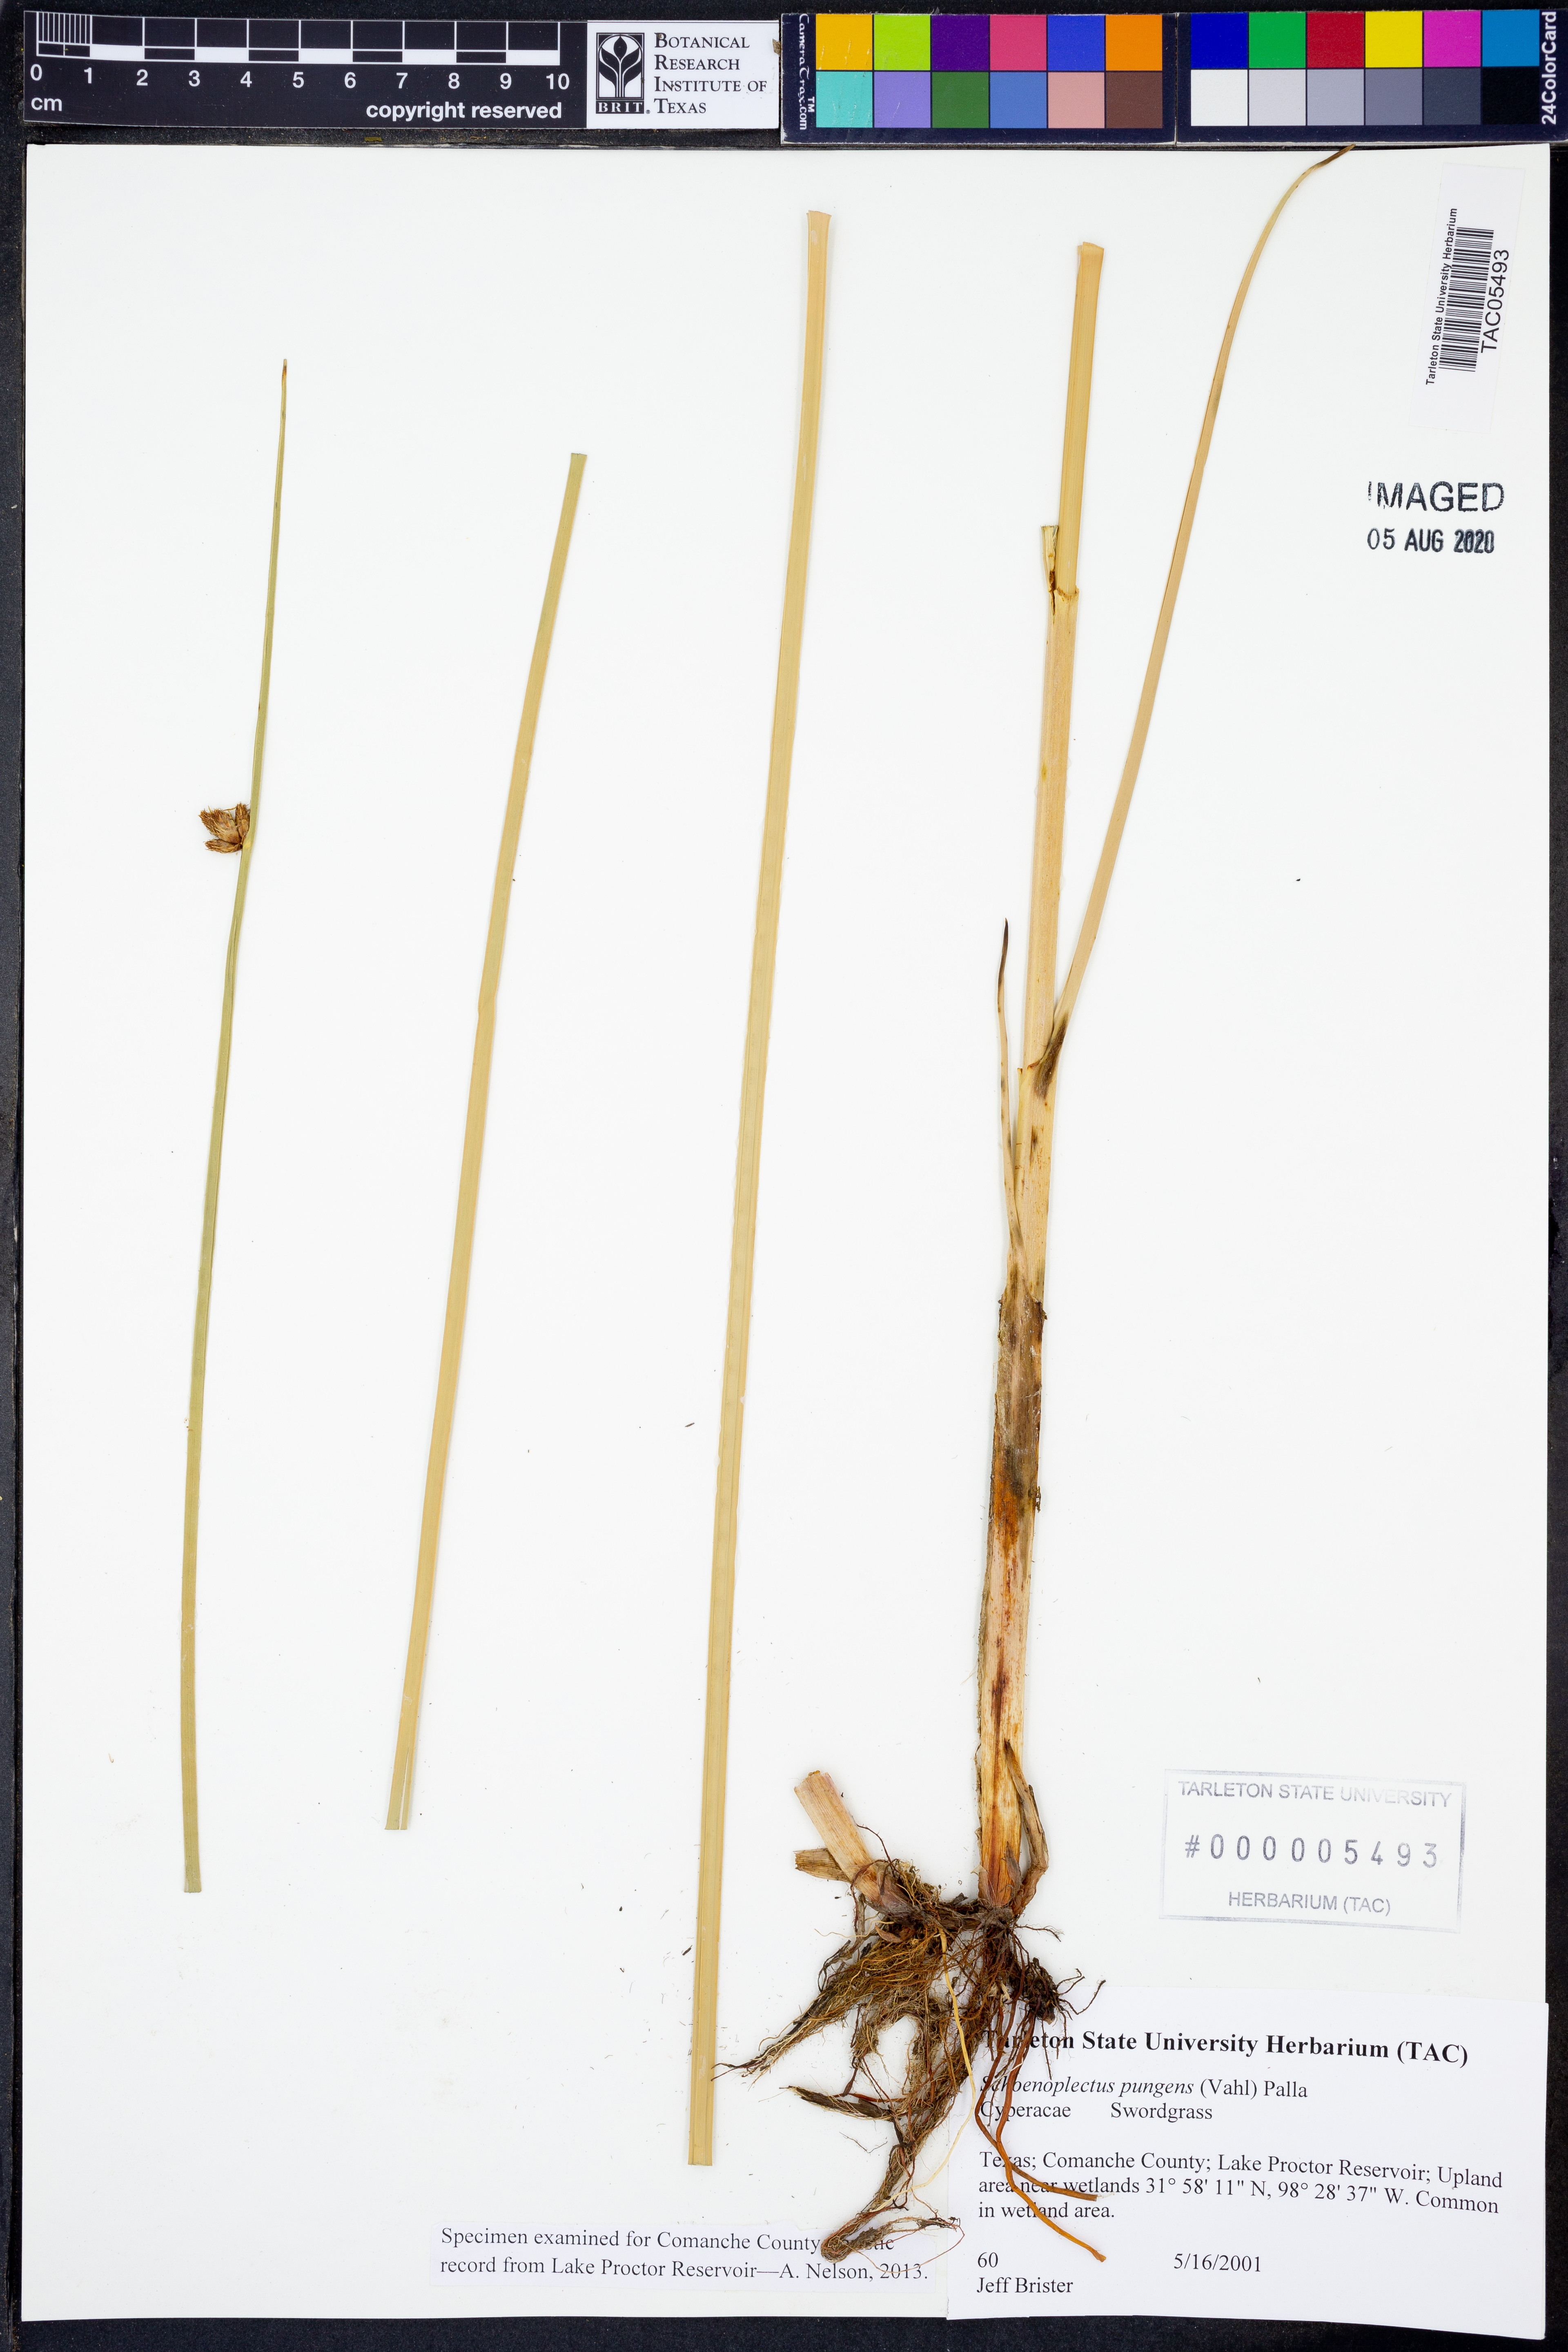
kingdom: Plantae
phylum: Tracheophyta
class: Liliopsida
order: Poales
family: Cyperaceae
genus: Schoenoplectus
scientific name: Schoenoplectus pungens
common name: Sharp club-rush
